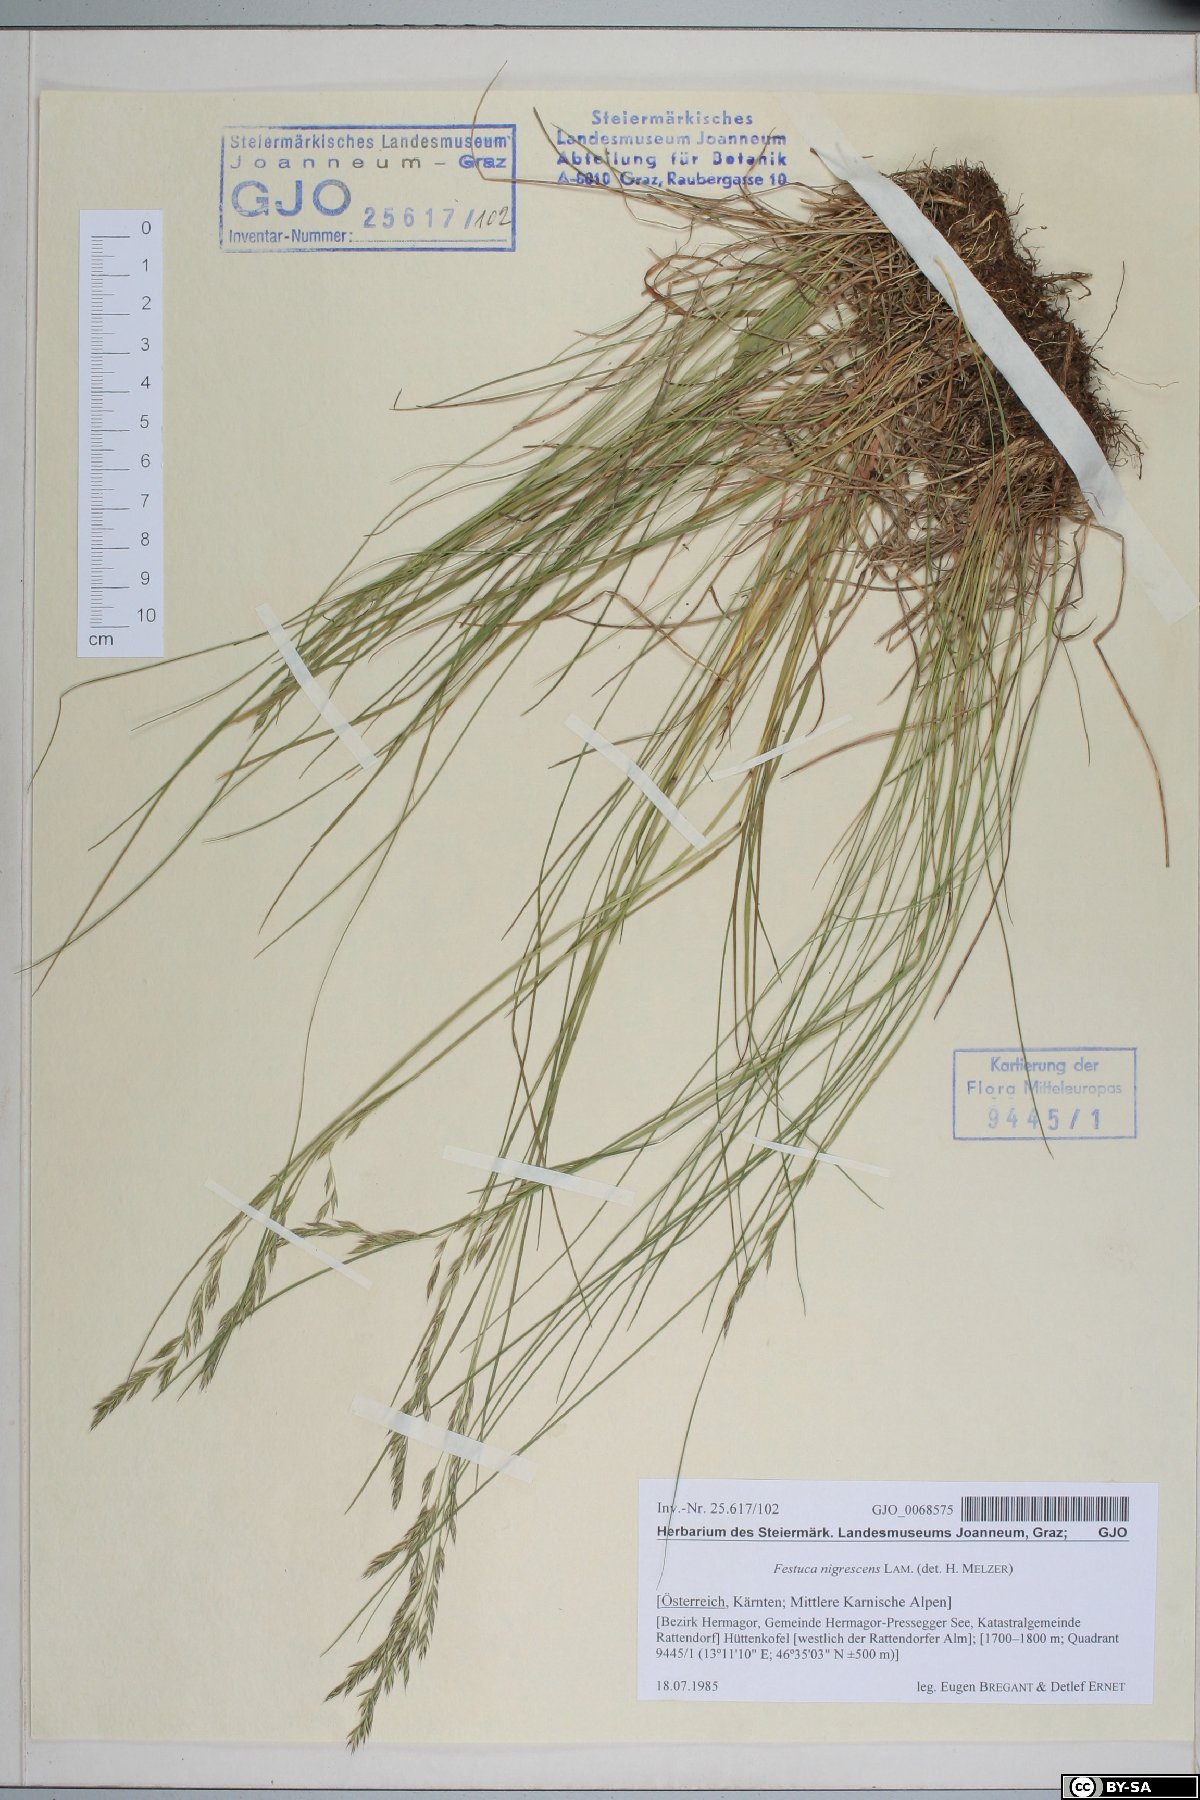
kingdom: Plantae
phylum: Tracheophyta
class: Liliopsida
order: Poales
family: Poaceae
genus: Festuca
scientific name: Festuca nigrescens
